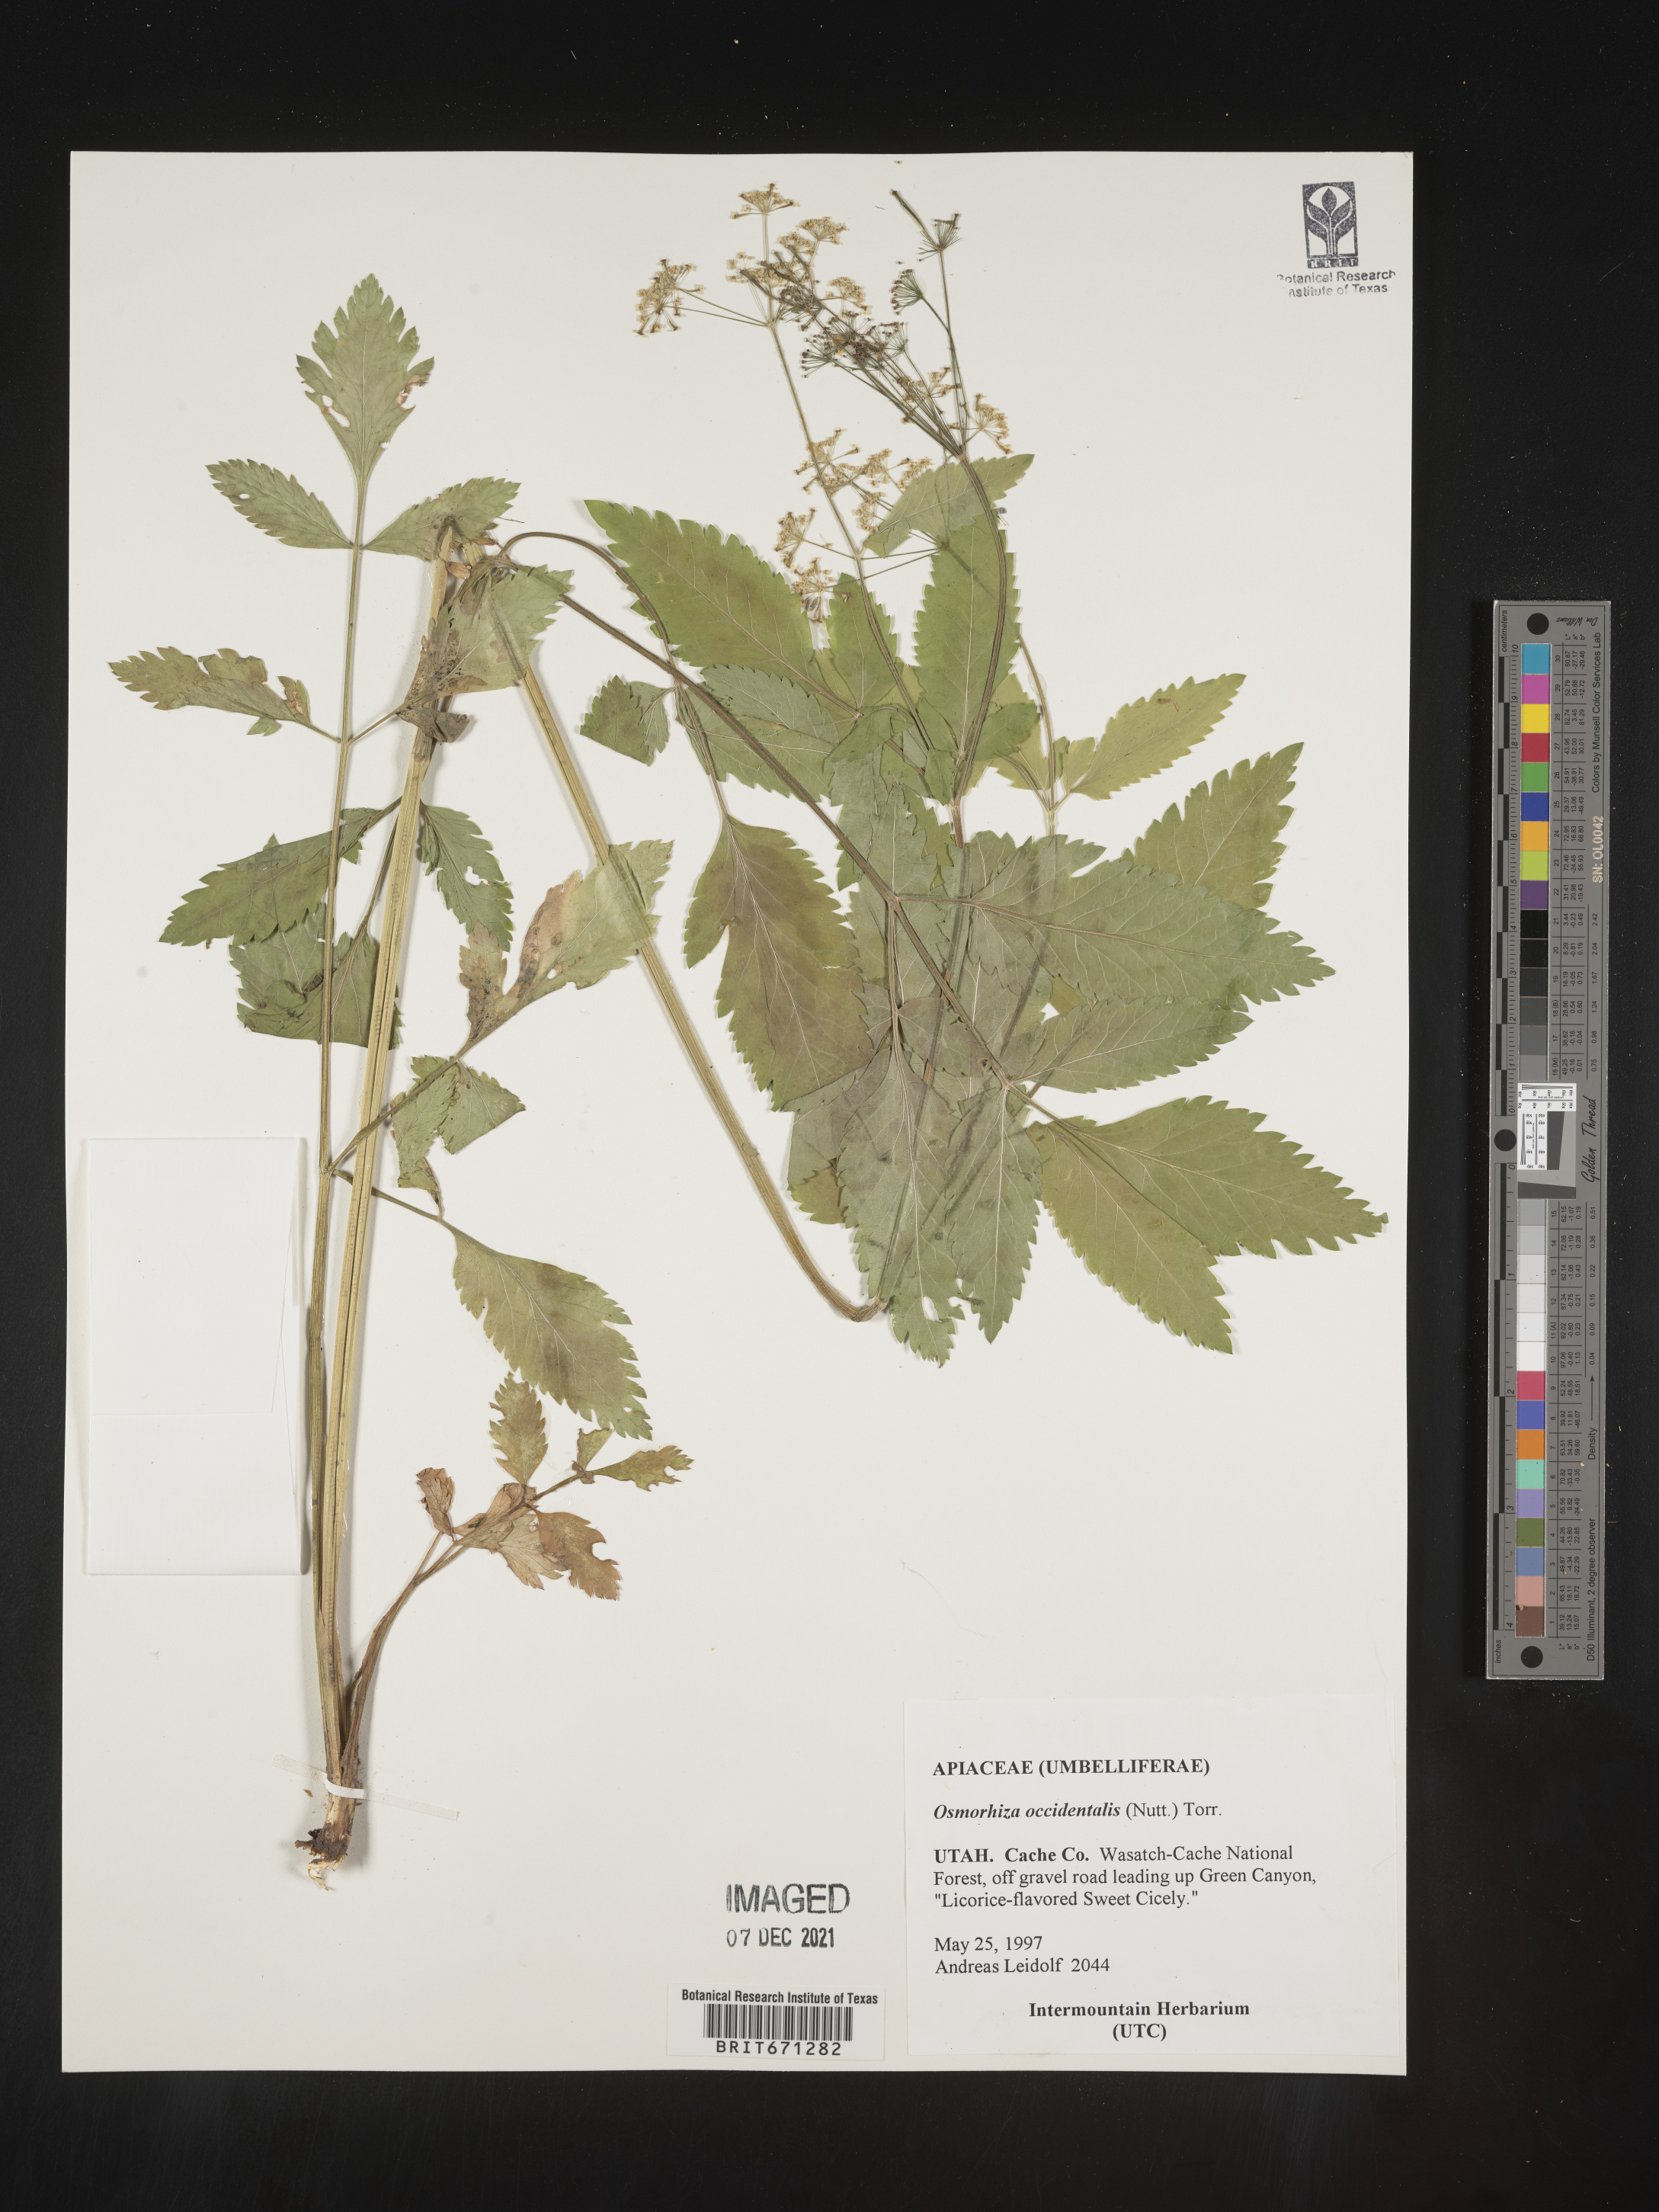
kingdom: Plantae
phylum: Tracheophyta
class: Magnoliopsida
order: Apiales
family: Apiaceae
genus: Osmorhiza
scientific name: Osmorhiza occidentalis
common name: Western sweet cicely
